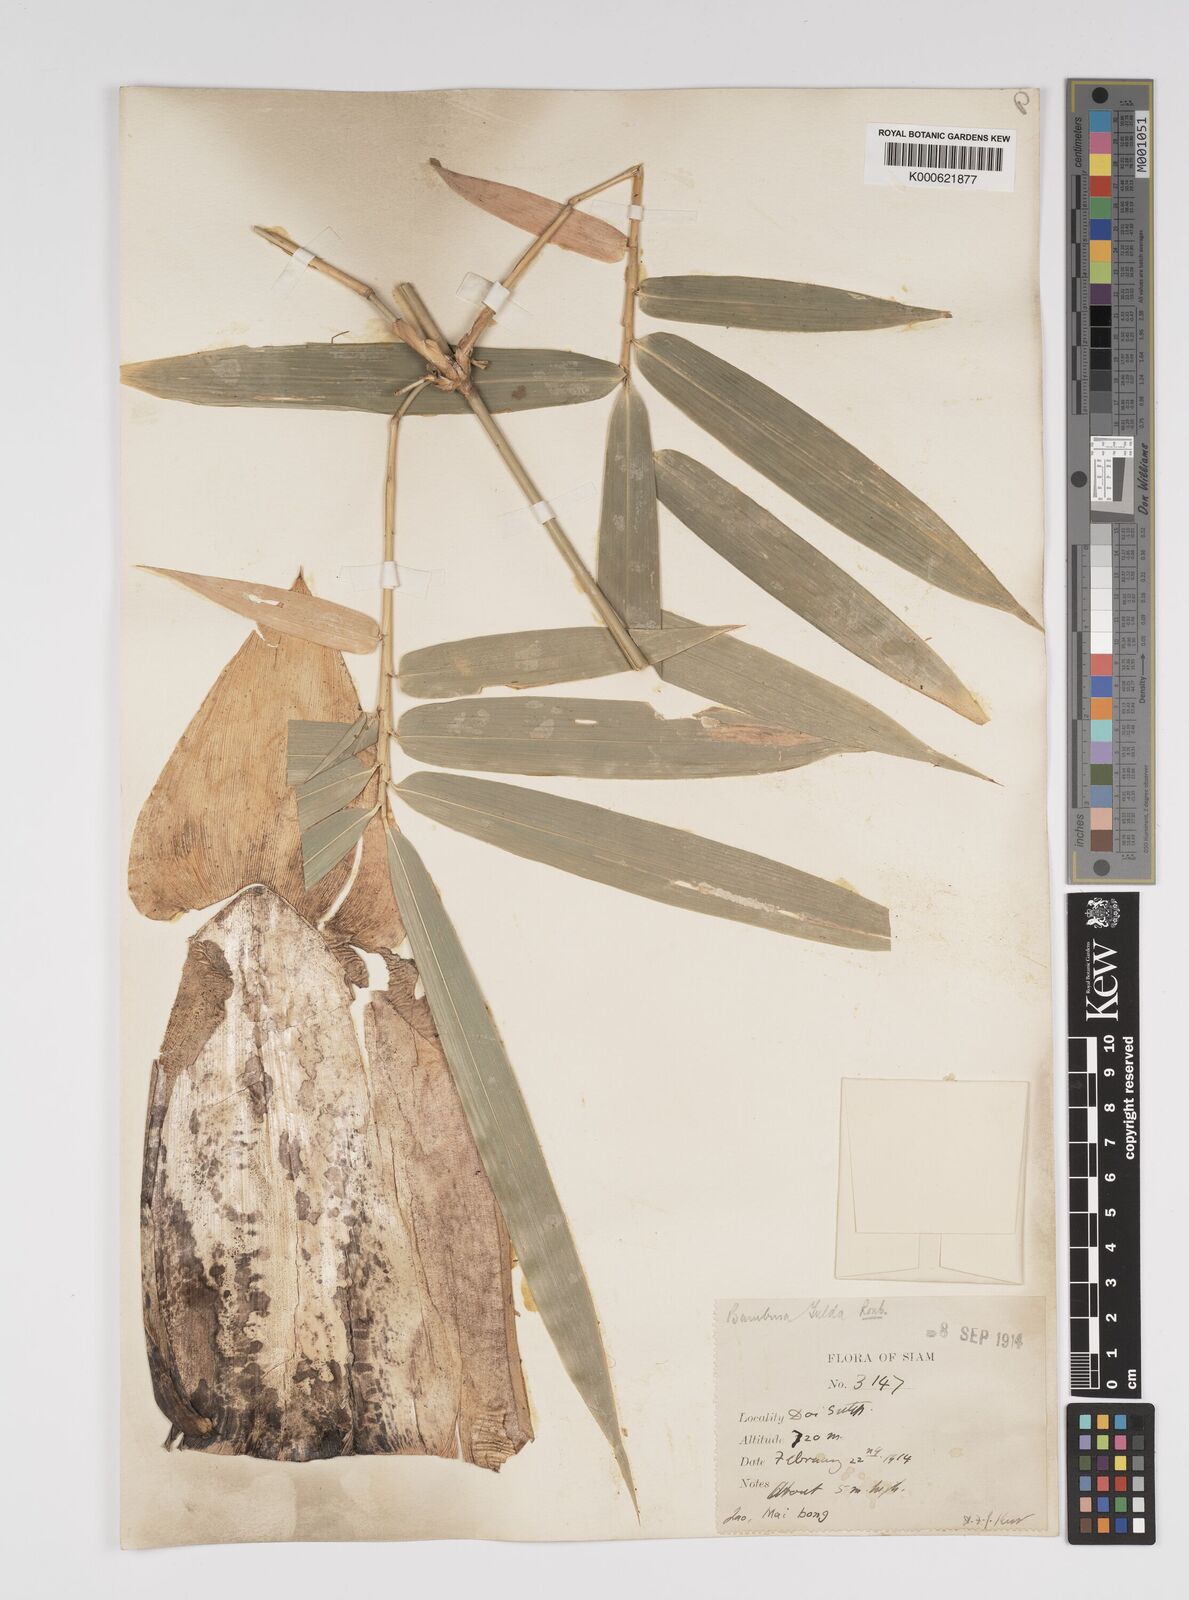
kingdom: Plantae
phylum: Tracheophyta
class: Liliopsida
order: Poales
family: Poaceae
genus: Bambusa
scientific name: Bambusa tulda
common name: Bengal bamboo
